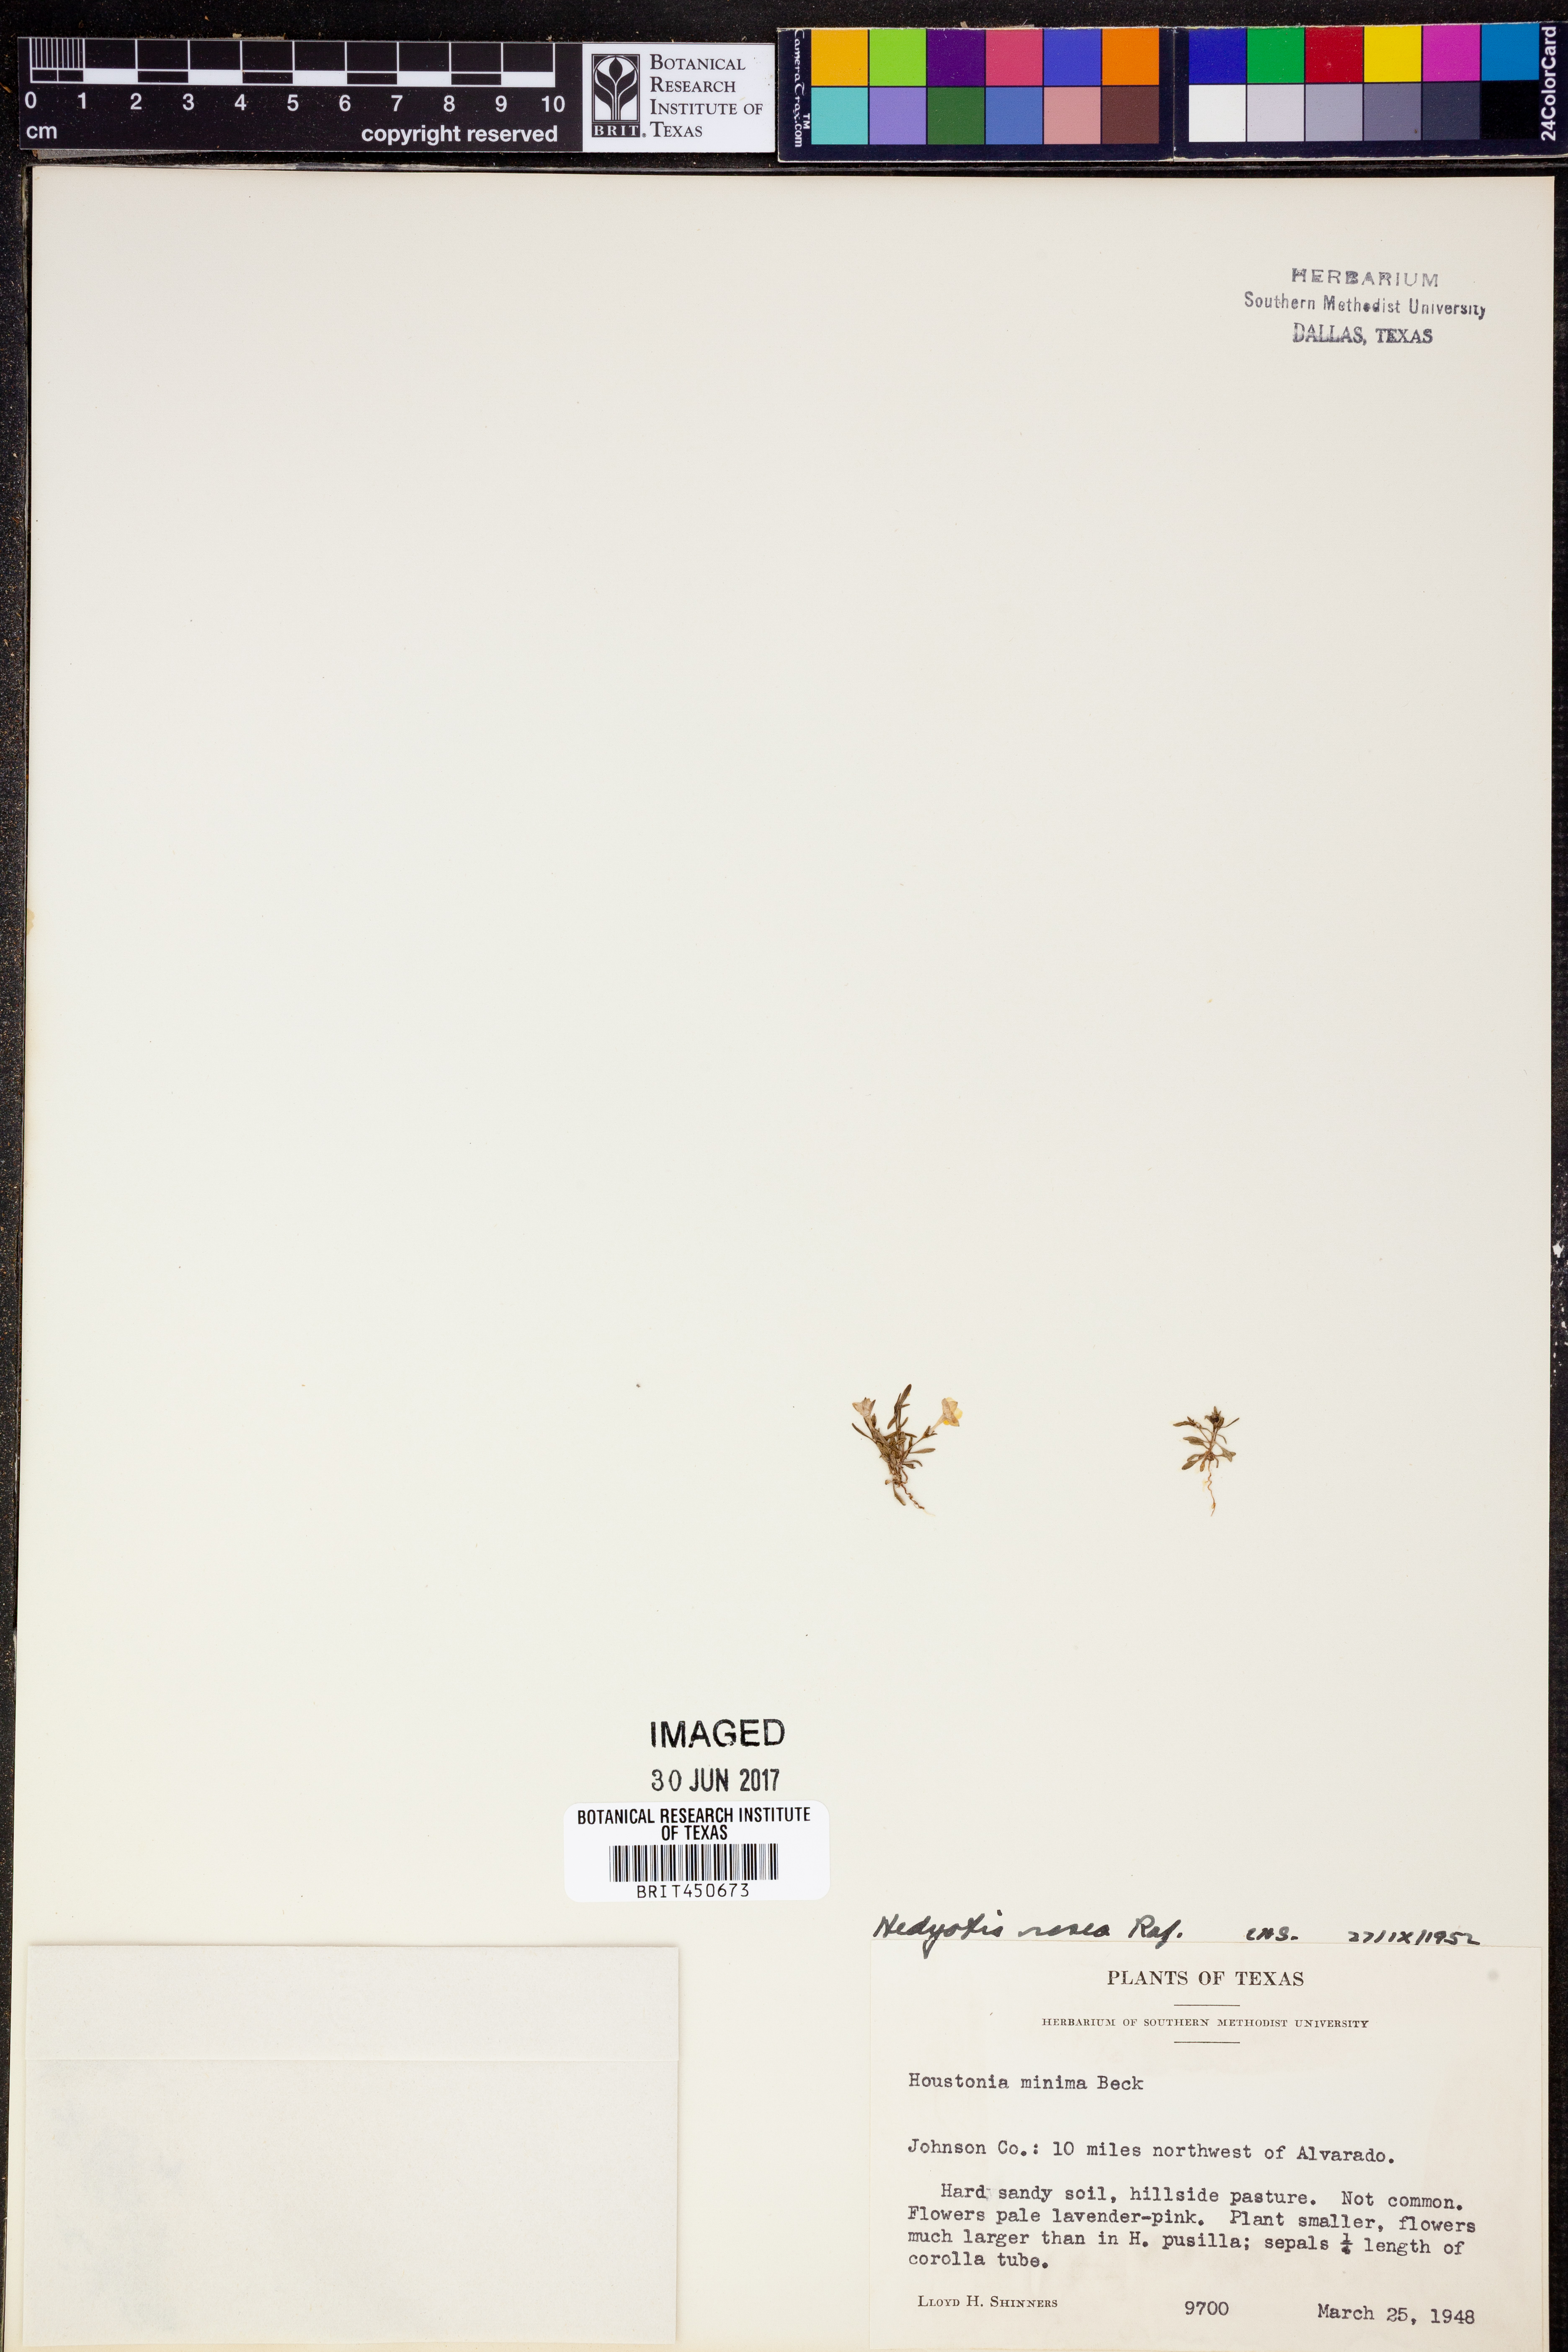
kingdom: Plantae
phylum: Tracheophyta
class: Magnoliopsida
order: Gentianales
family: Rubiaceae
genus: Houstonia
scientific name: Houstonia rosea
